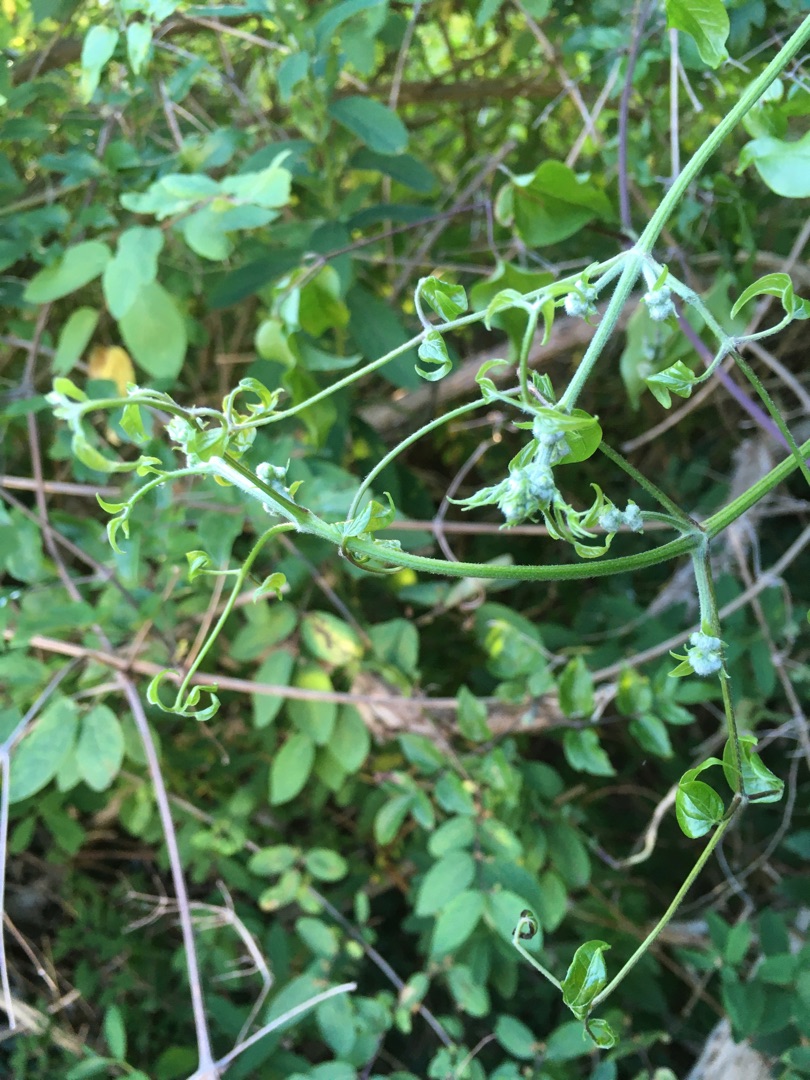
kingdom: Plantae
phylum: Tracheophyta
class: Magnoliopsida
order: Ranunculales
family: Ranunculaceae
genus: Clematis
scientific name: Clematis vitalba
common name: Skovranke
